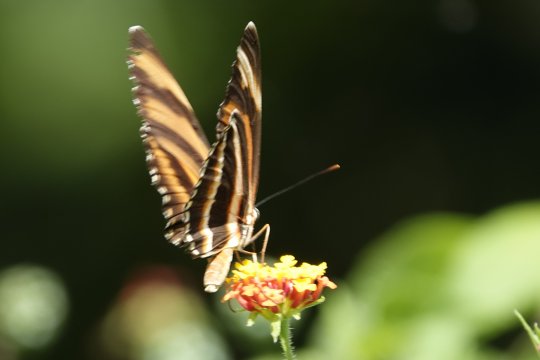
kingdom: Animalia
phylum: Arthropoda
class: Insecta
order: Lepidoptera
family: Nymphalidae
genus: Dryadula
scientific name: Dryadula phaetusa
